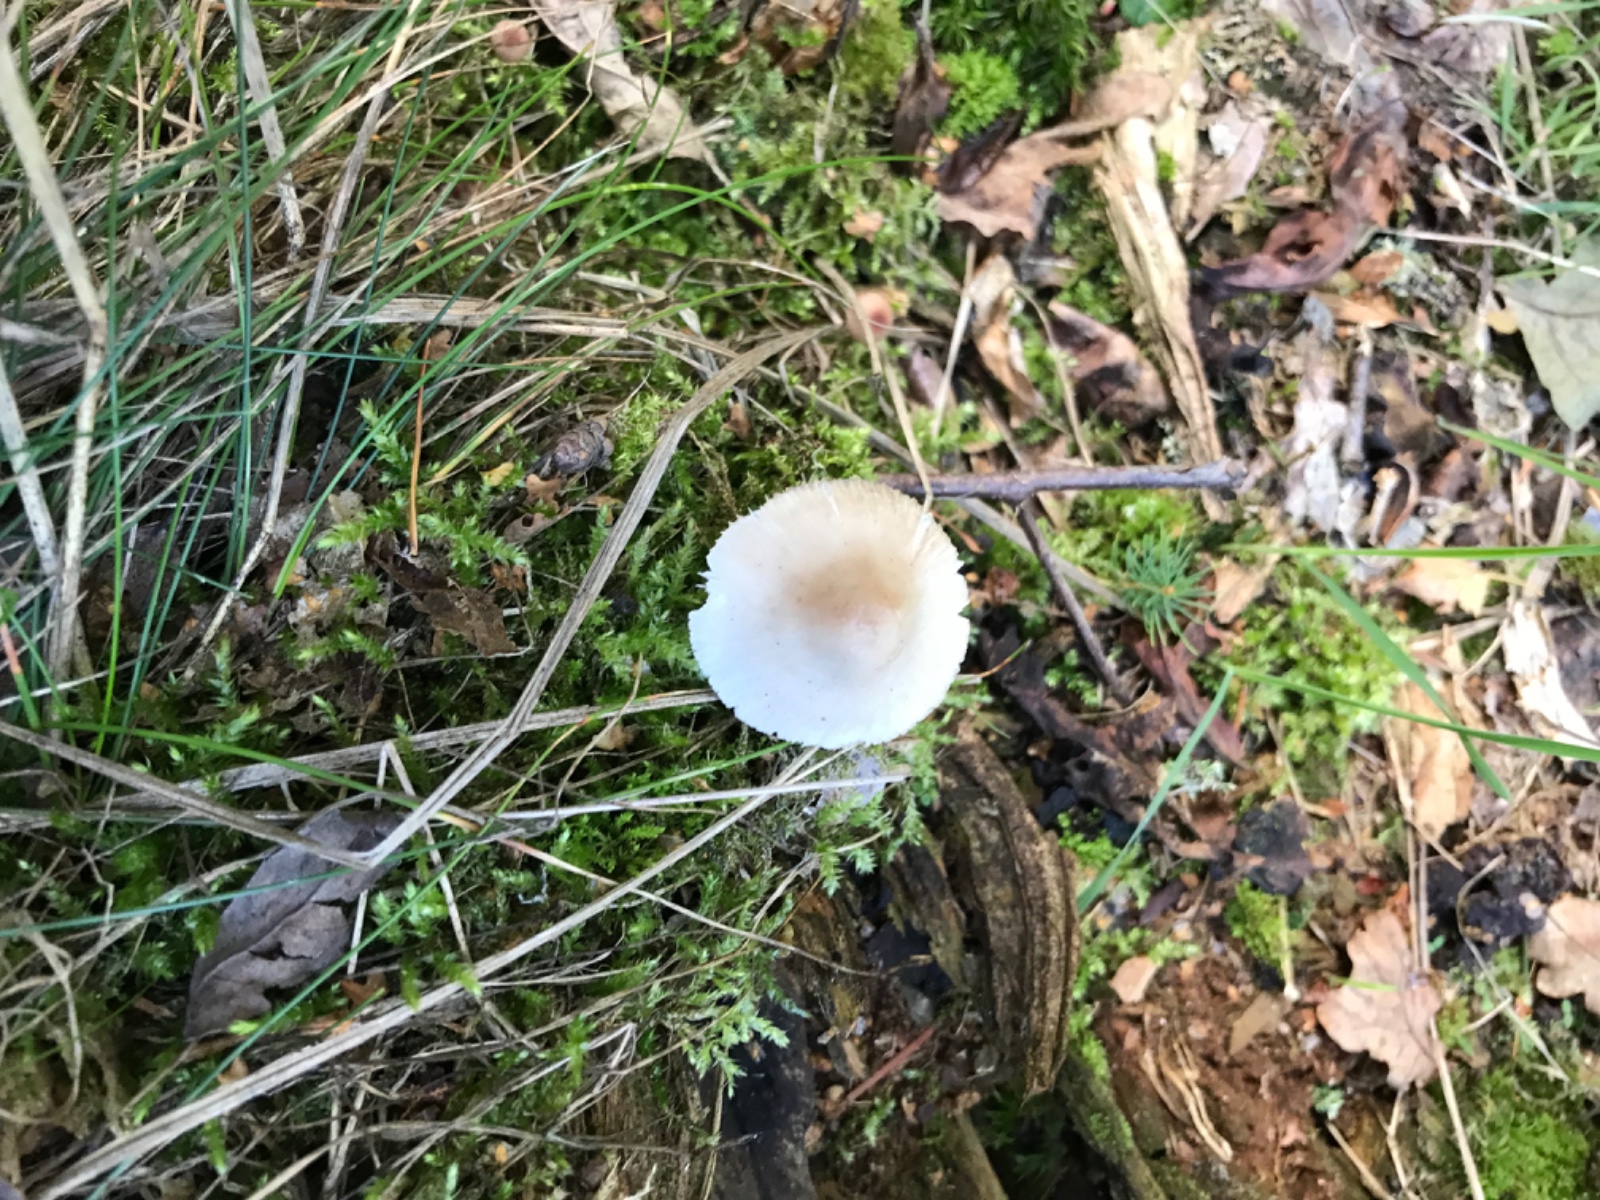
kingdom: Fungi
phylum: Basidiomycota
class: Agaricomycetes
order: Agaricales
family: Mycenaceae
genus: Mycena
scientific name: Mycena galericulata
